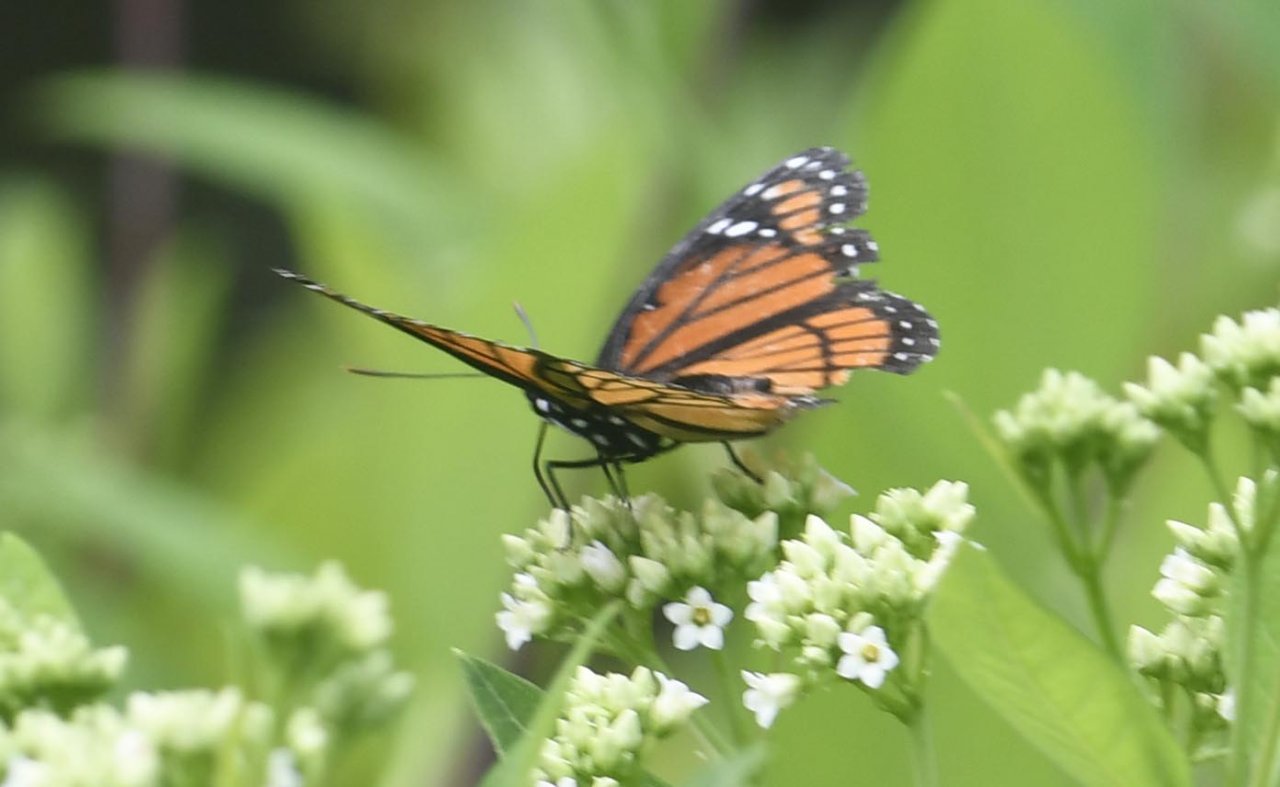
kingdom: Animalia
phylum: Arthropoda
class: Insecta
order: Lepidoptera
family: Nymphalidae
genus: Limenitis
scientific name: Limenitis archippus
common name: Viceroy
